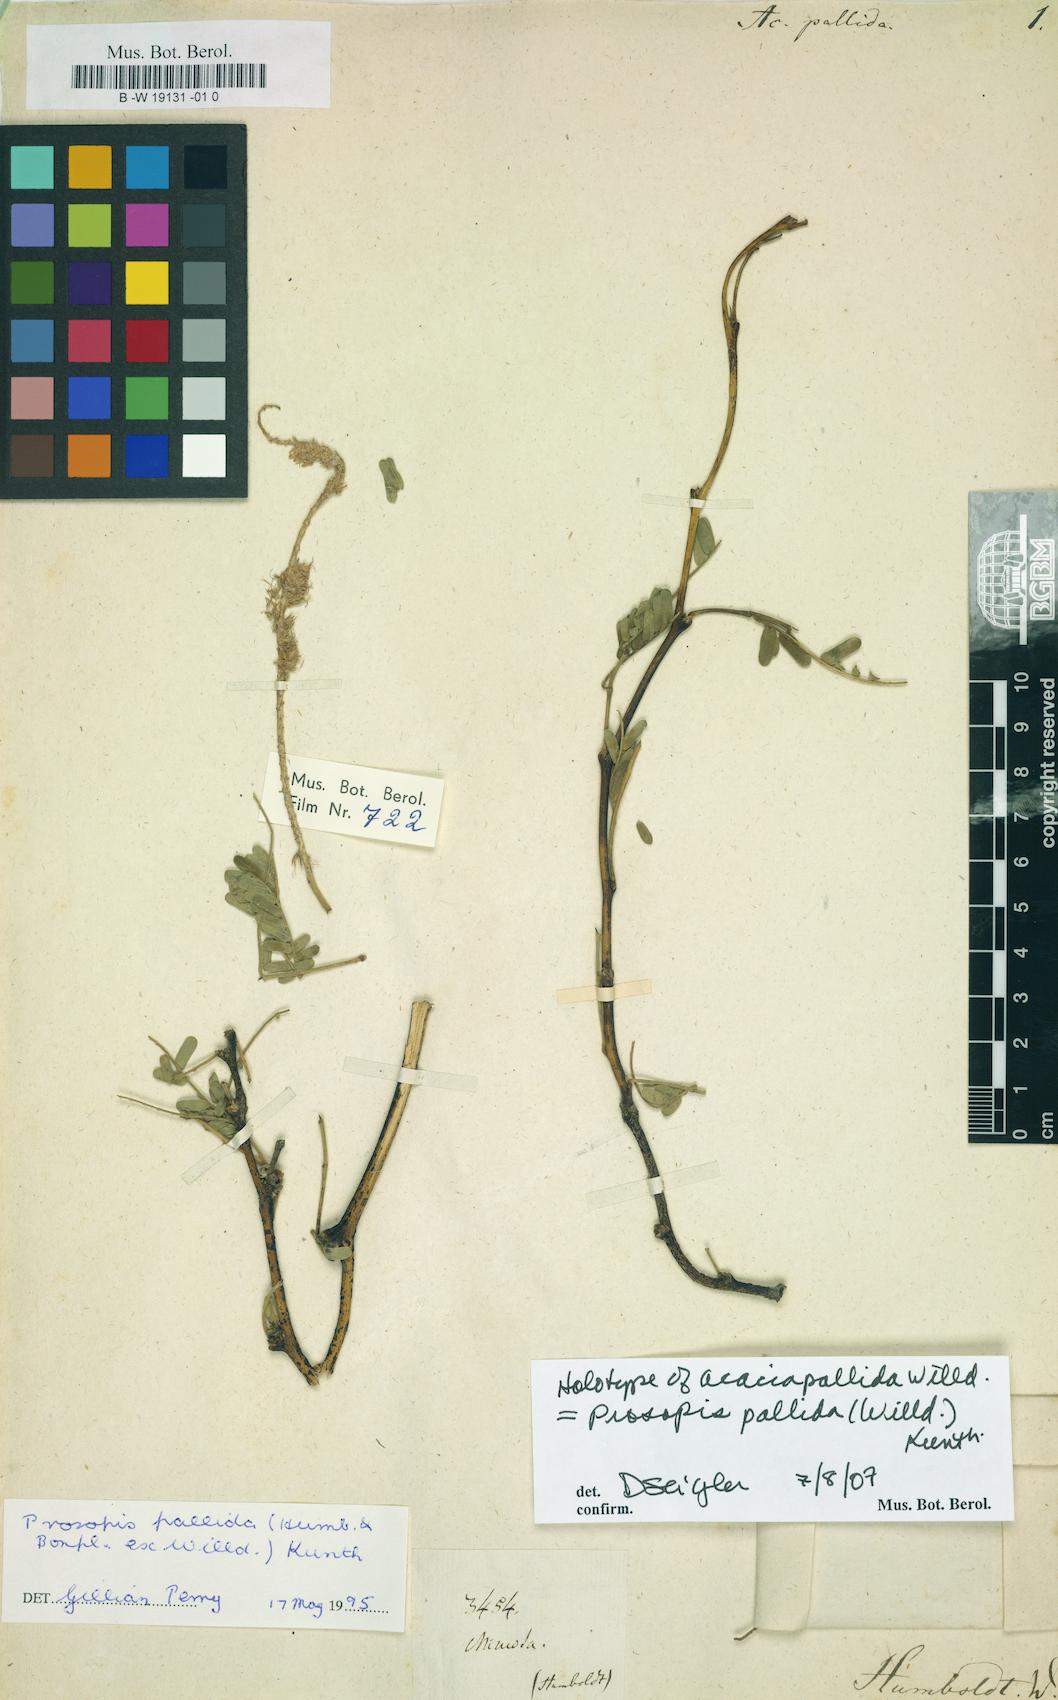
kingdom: Plantae
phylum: Tracheophyta
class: Magnoliopsida
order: Fabales
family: Fabaceae
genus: Prosopis
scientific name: Prosopis pallida
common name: Mesquite
